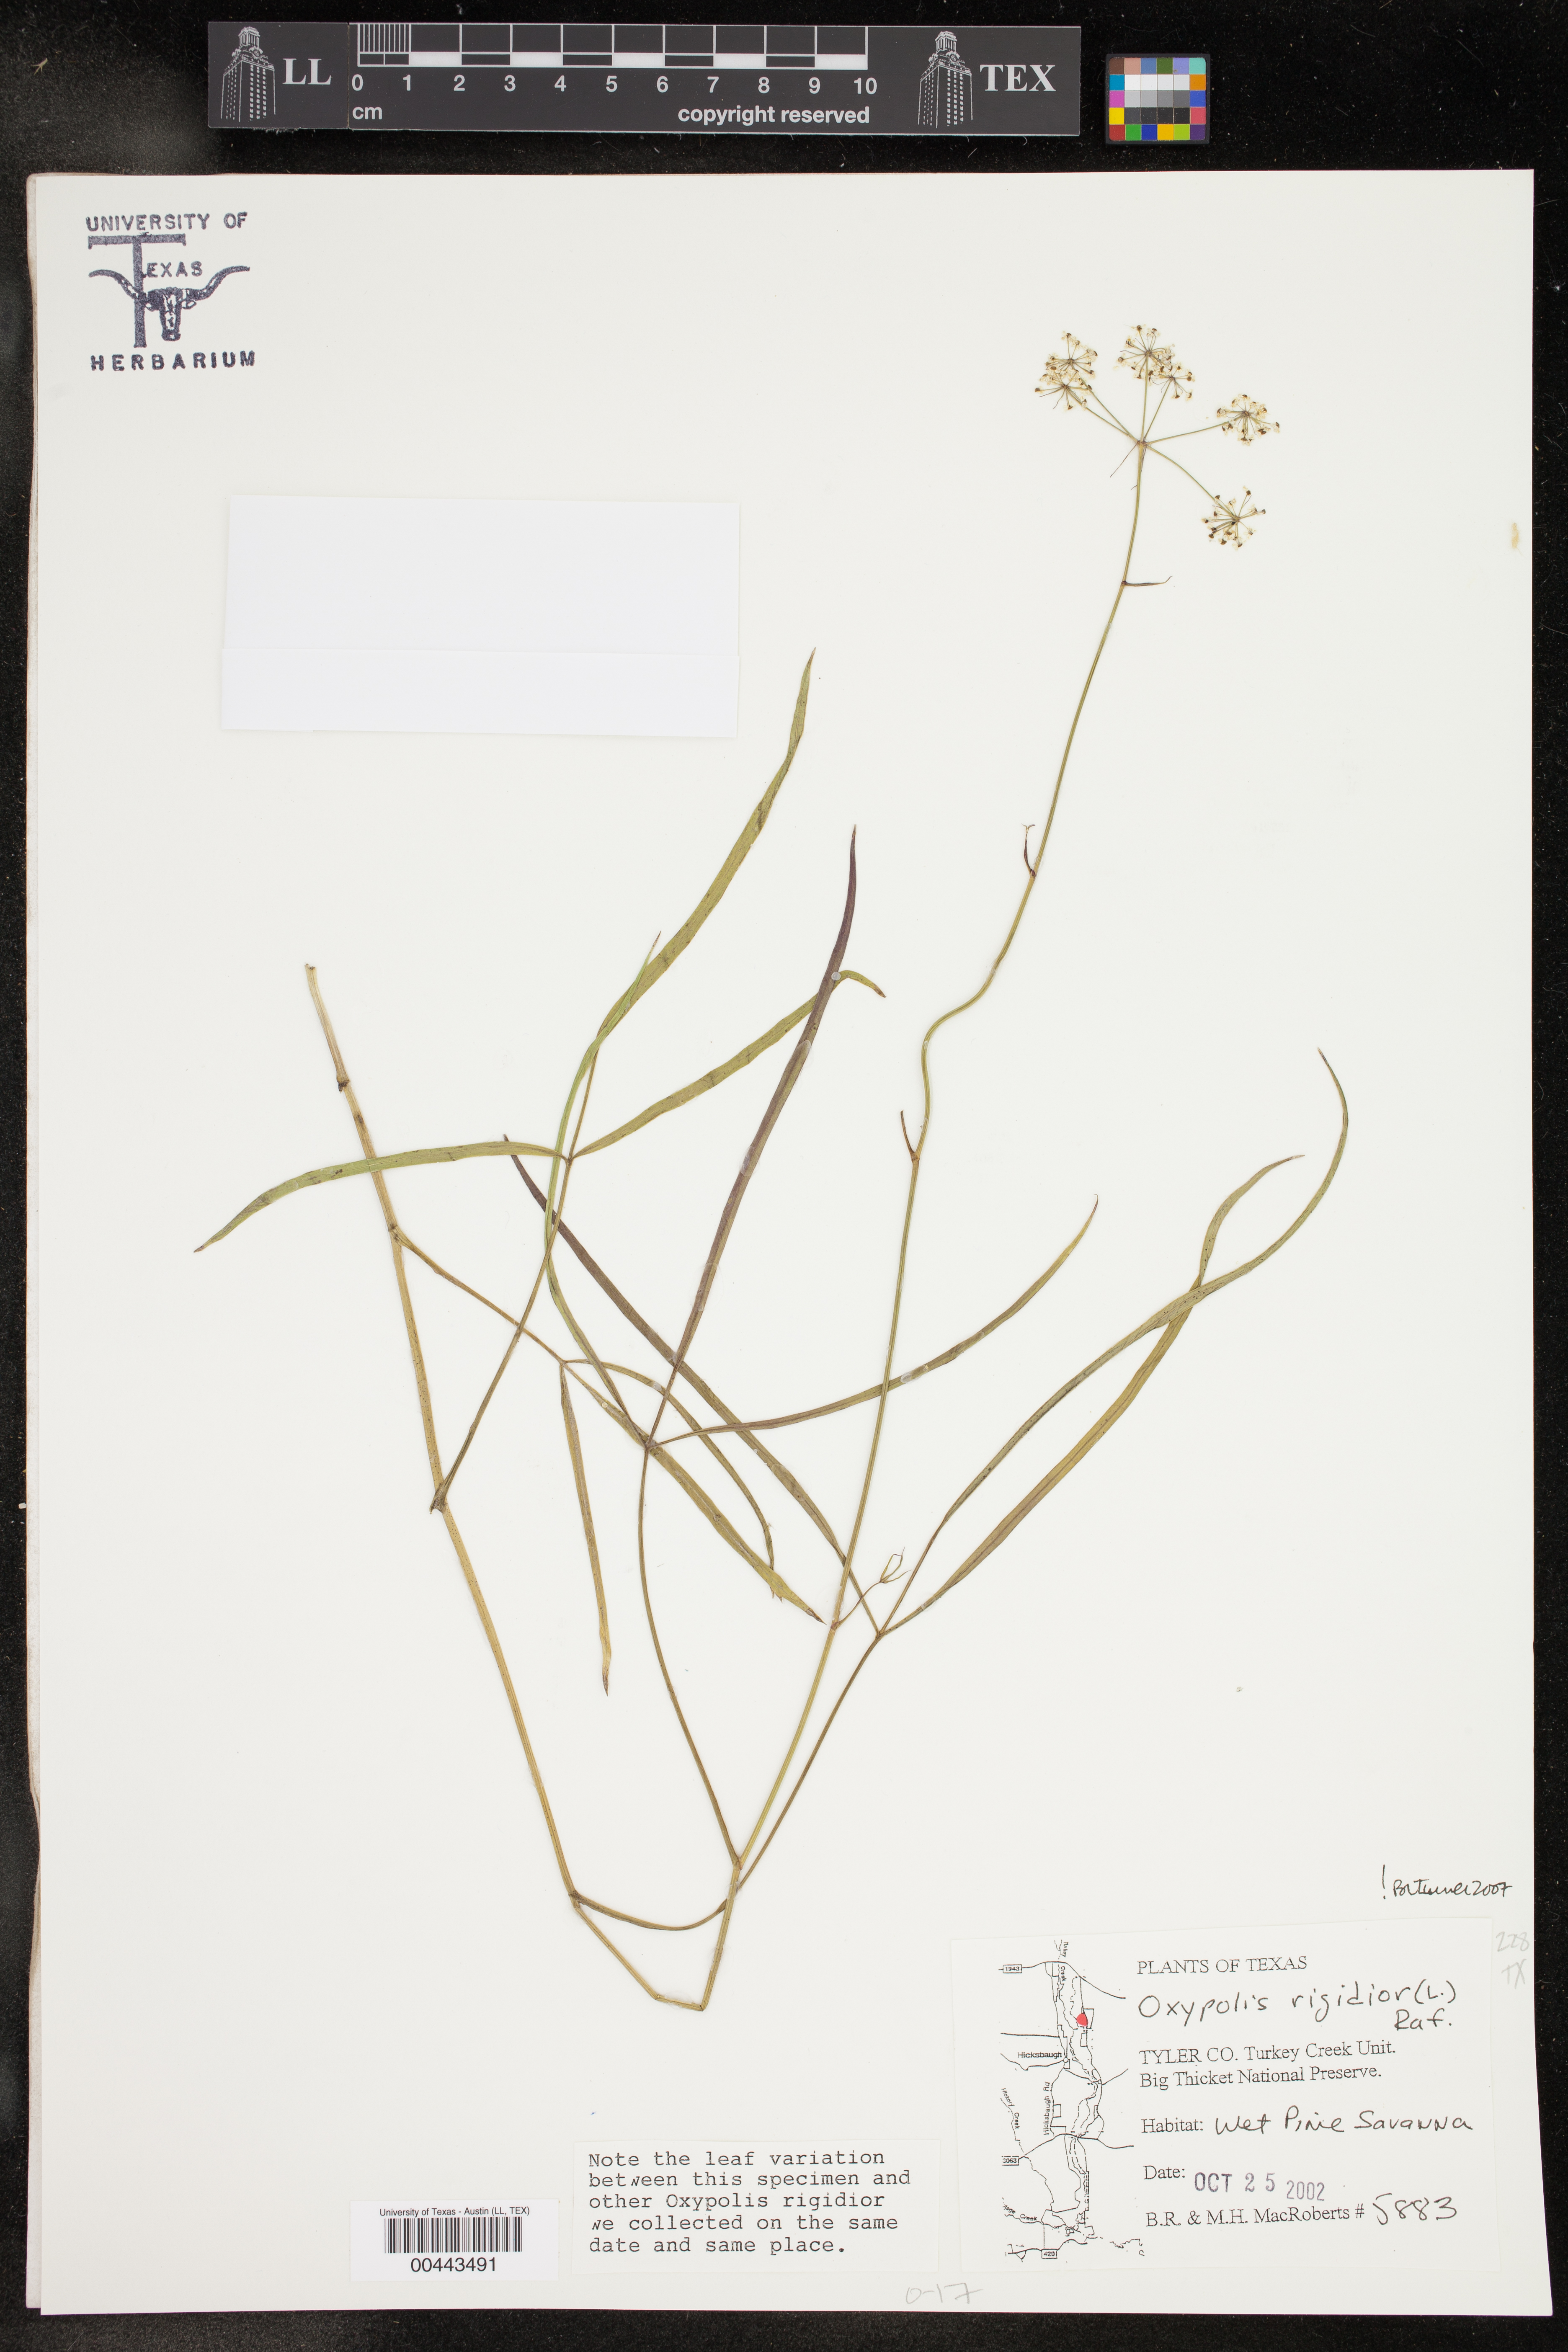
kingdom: Plantae
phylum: Tracheophyta
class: Magnoliopsida
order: Apiales
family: Apiaceae
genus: Oxypolis
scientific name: Oxypolis rigidior
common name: Cowbane
